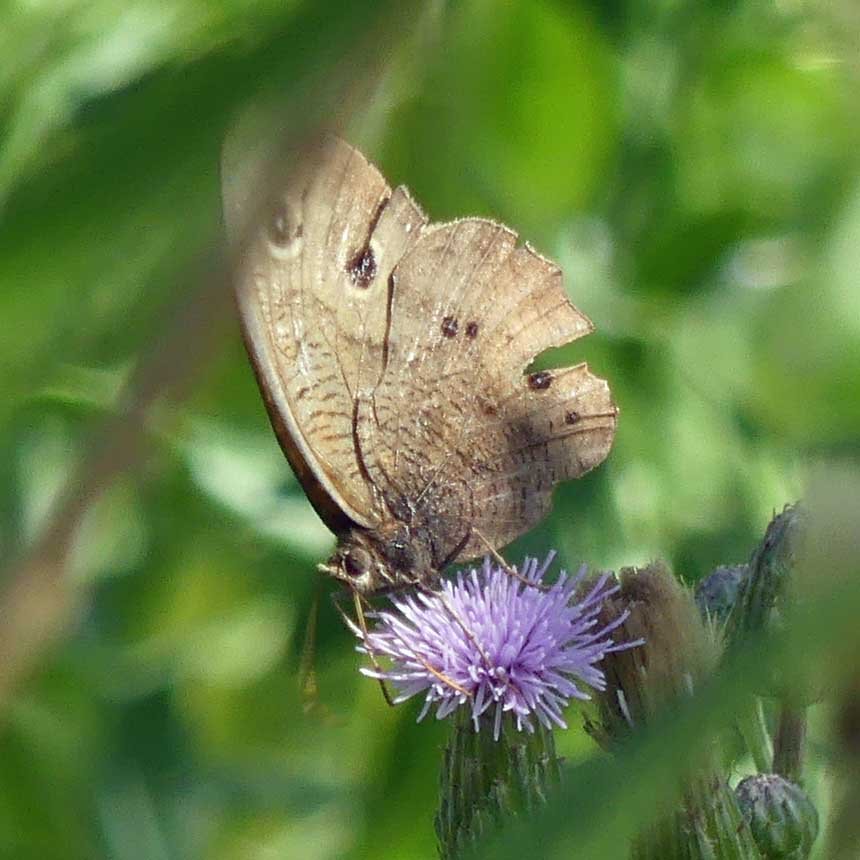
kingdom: Animalia
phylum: Arthropoda
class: Insecta
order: Lepidoptera
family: Nymphalidae
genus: Cercyonis
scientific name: Cercyonis pegala
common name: Common Wood-Nymph
